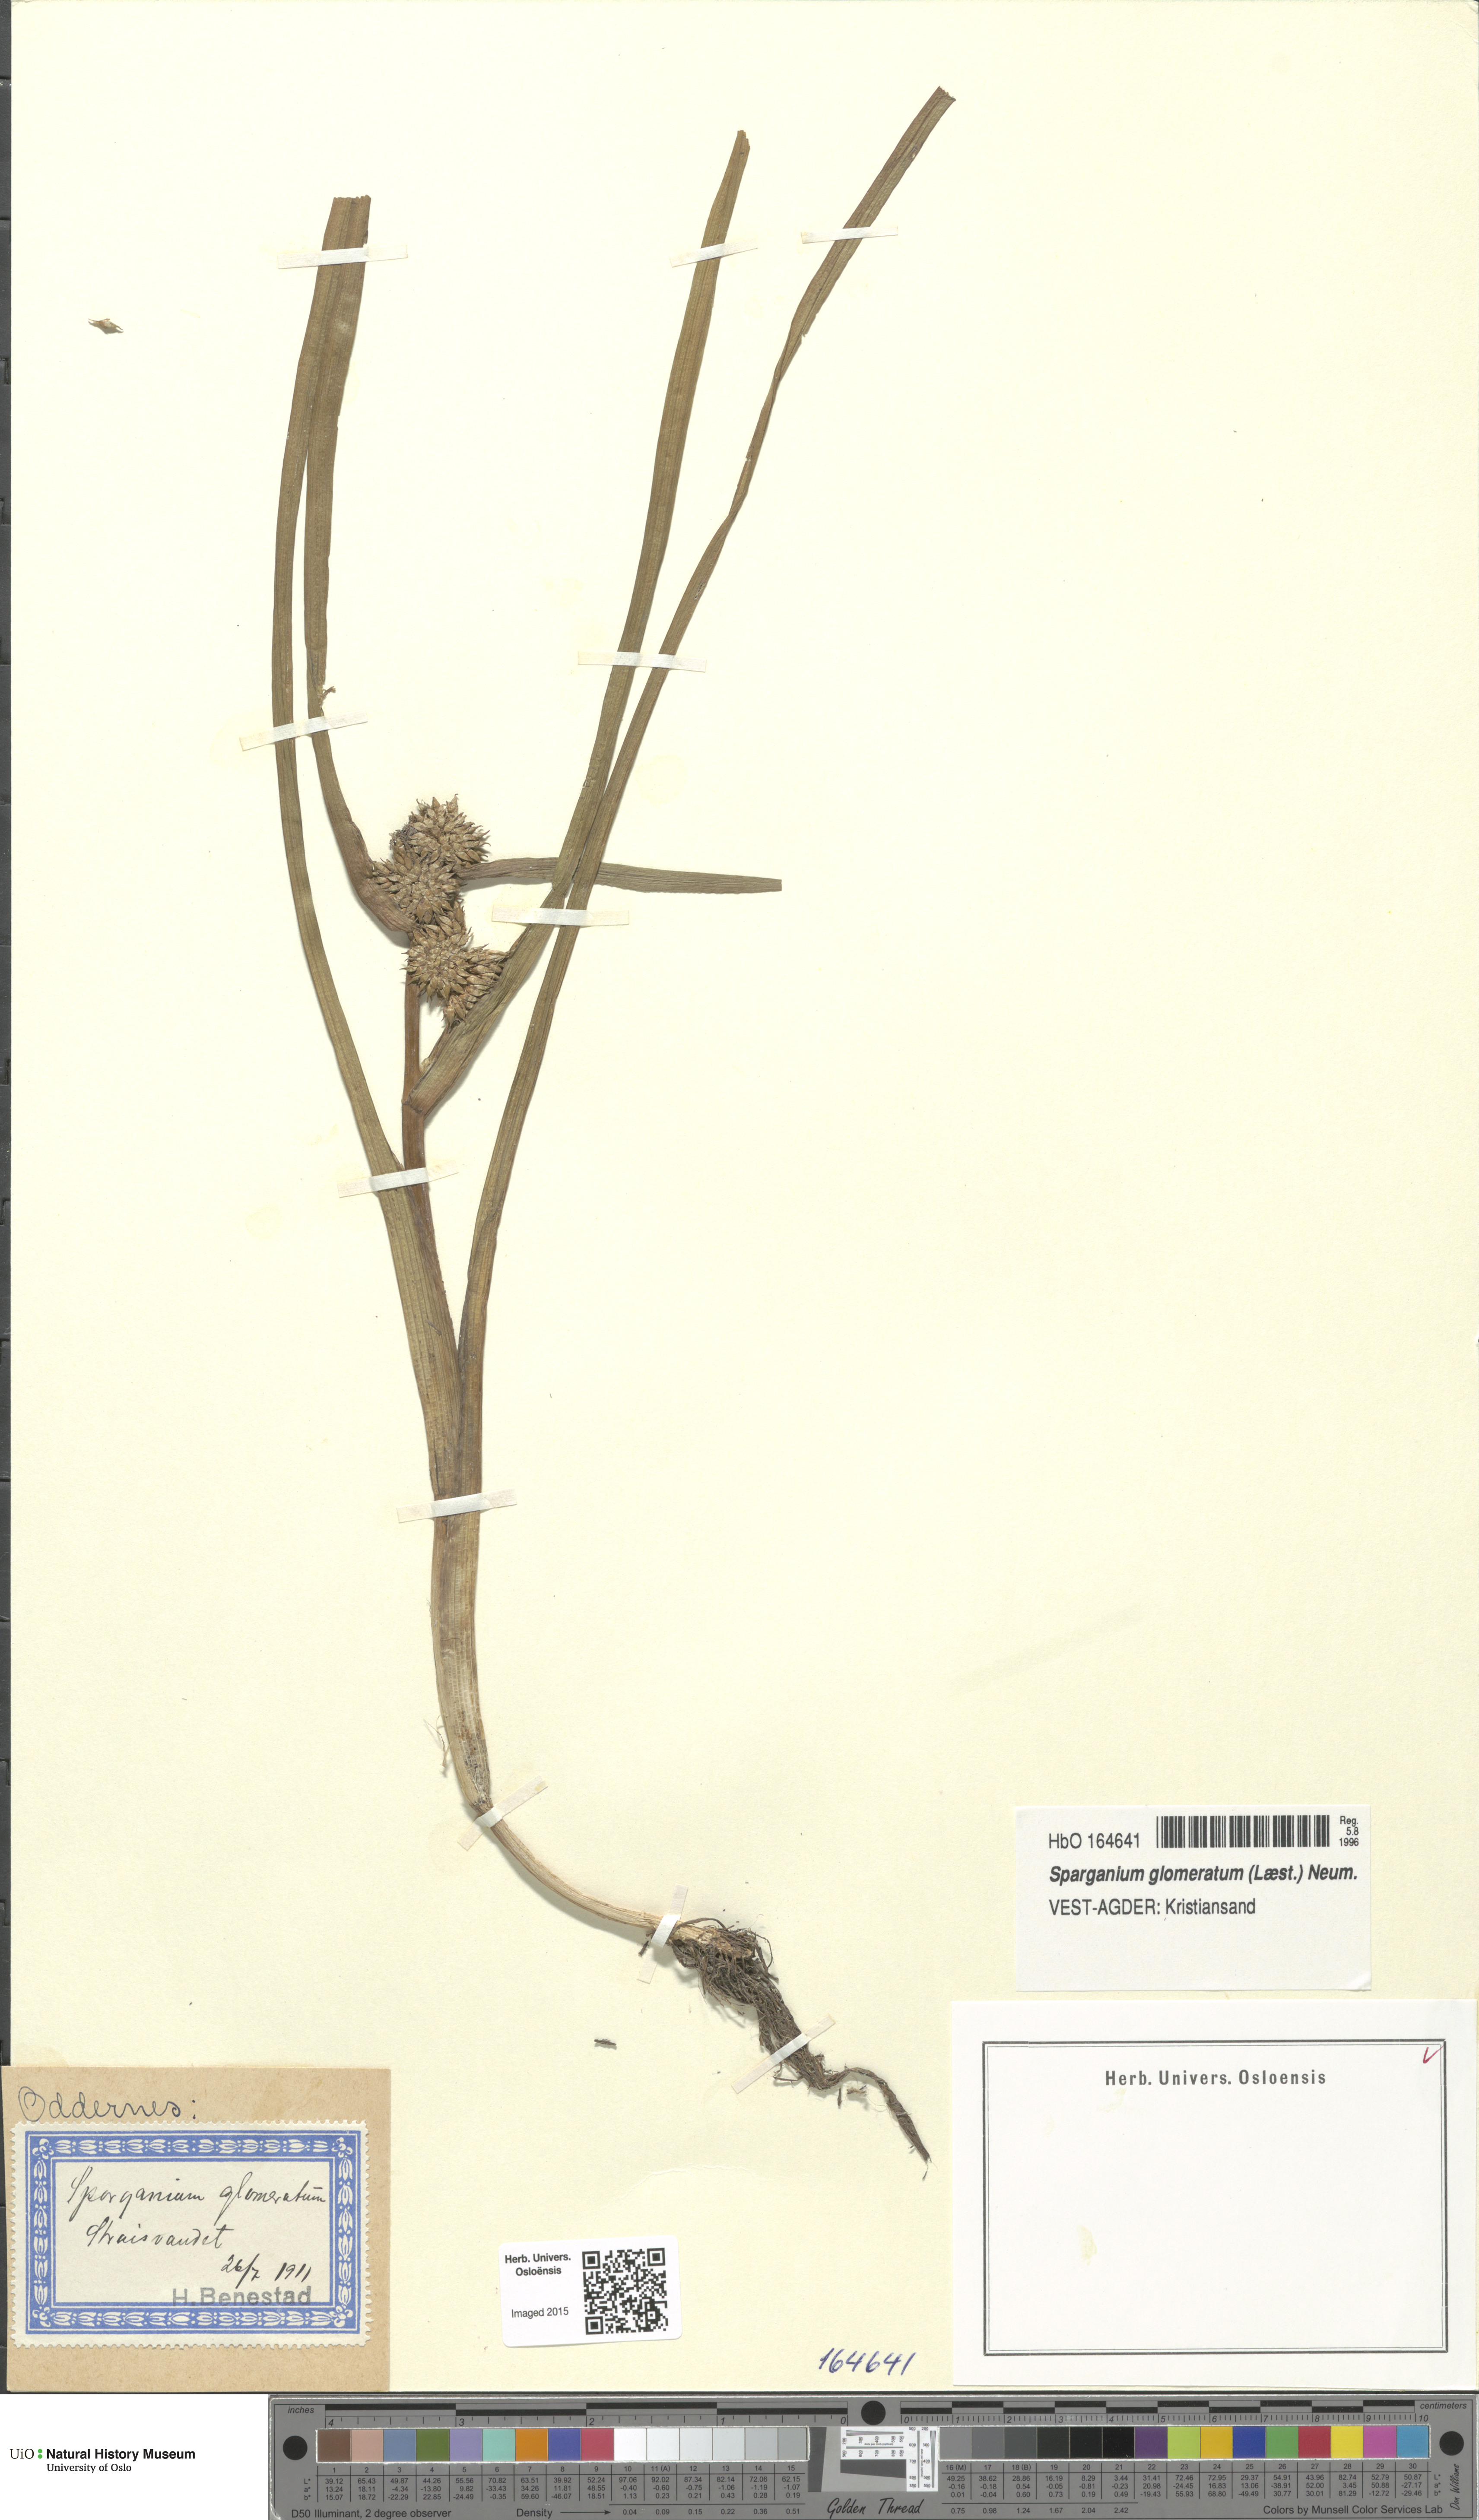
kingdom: Plantae
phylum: Tracheophyta
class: Liliopsida
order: Poales
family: Typhaceae
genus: Sparganium
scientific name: Sparganium glomeratum
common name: Clustered burreed
